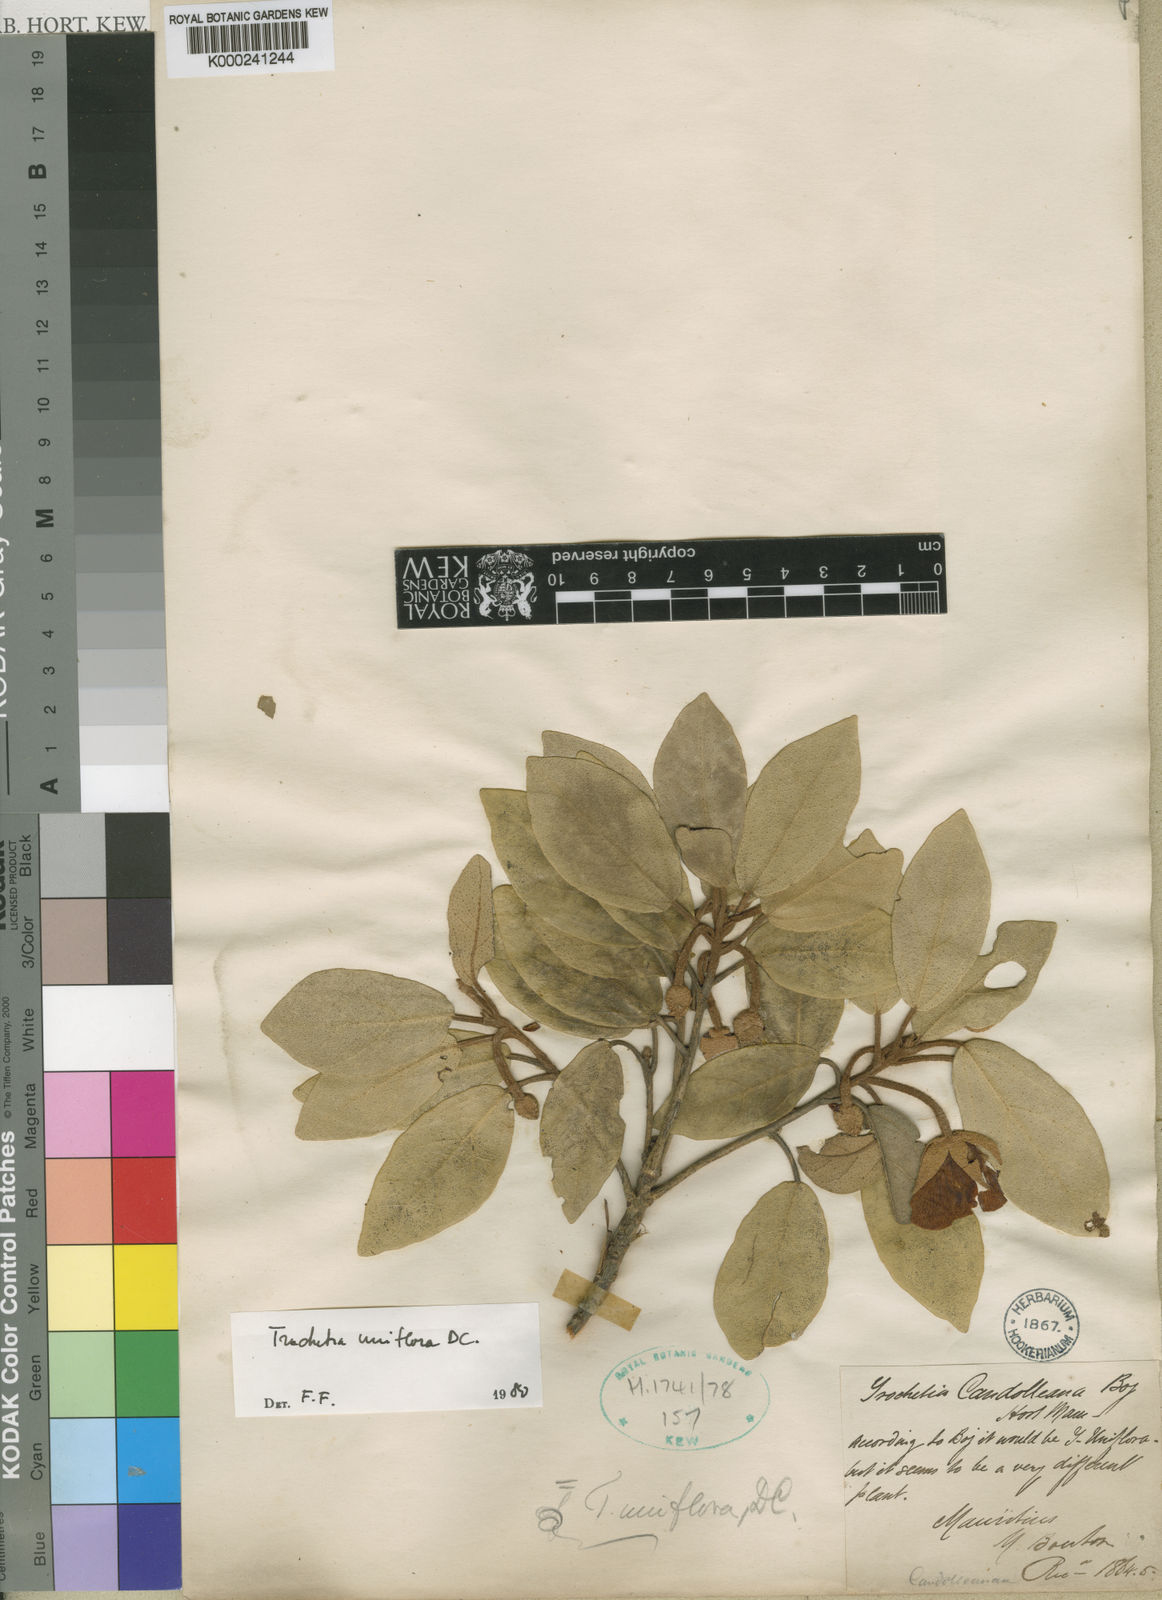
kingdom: Plantae
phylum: Tracheophyta
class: Magnoliopsida
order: Malvales
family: Malvaceae
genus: Ruizia
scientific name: Ruizia uniflora
